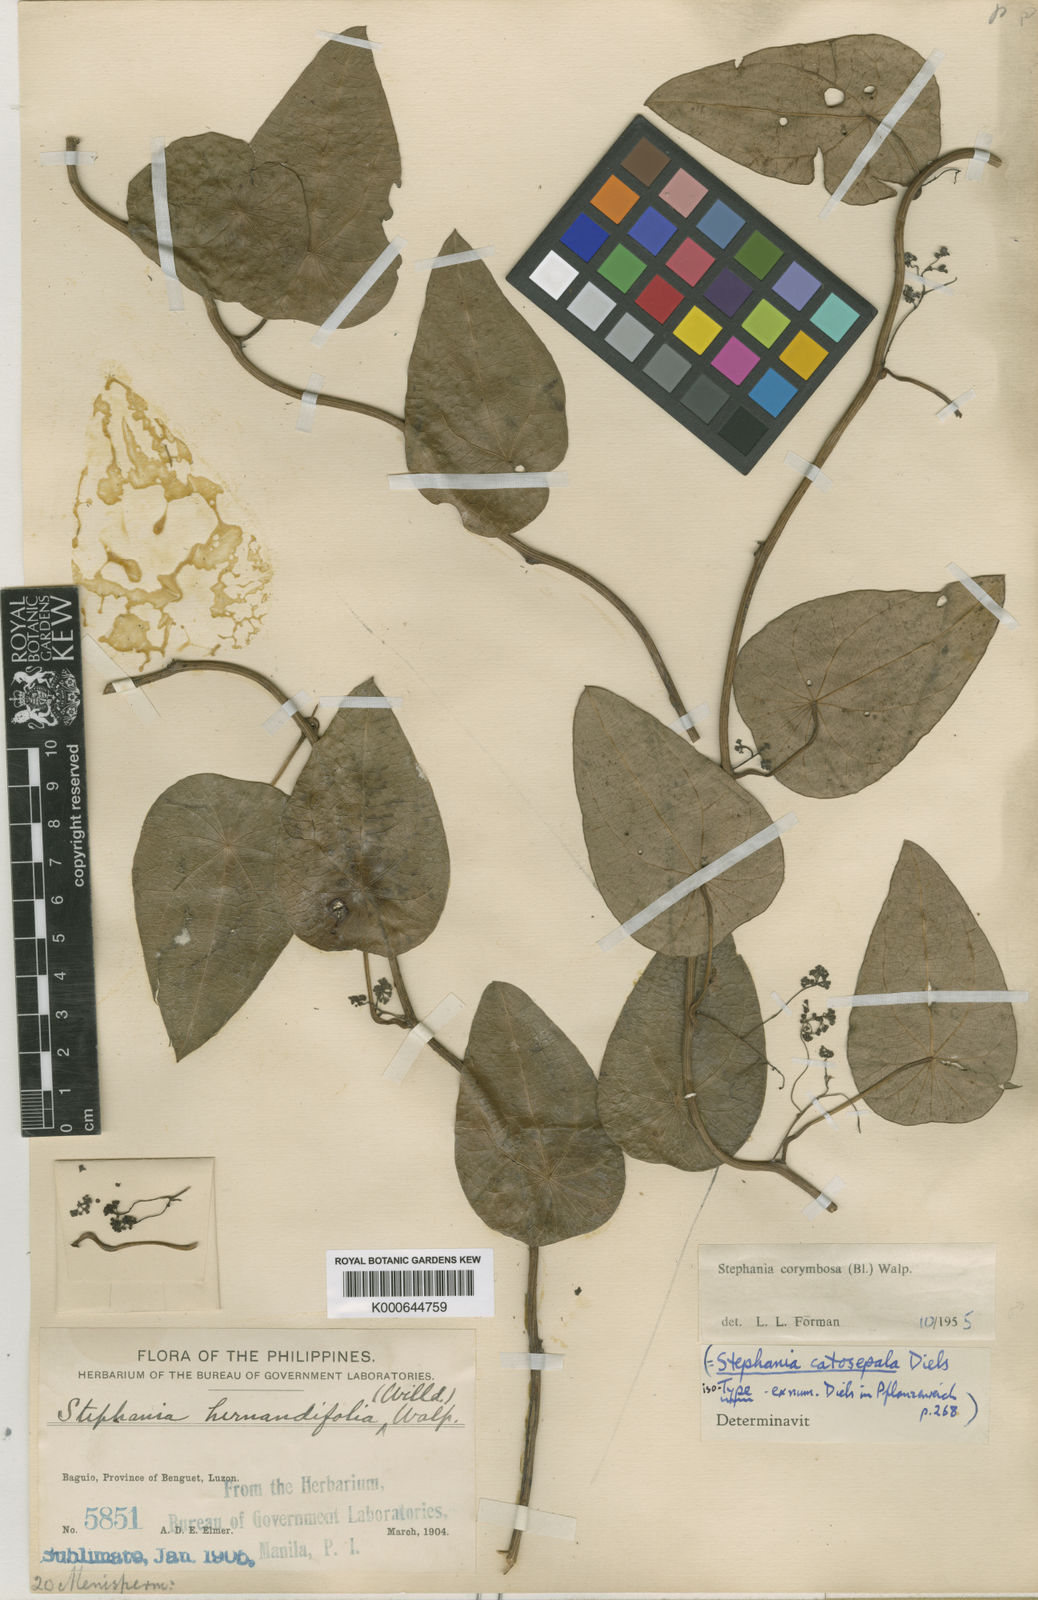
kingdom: Plantae
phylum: Tracheophyta
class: Magnoliopsida
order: Ranunculales
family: Menispermaceae
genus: Stephania
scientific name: Stephania corymbosa
